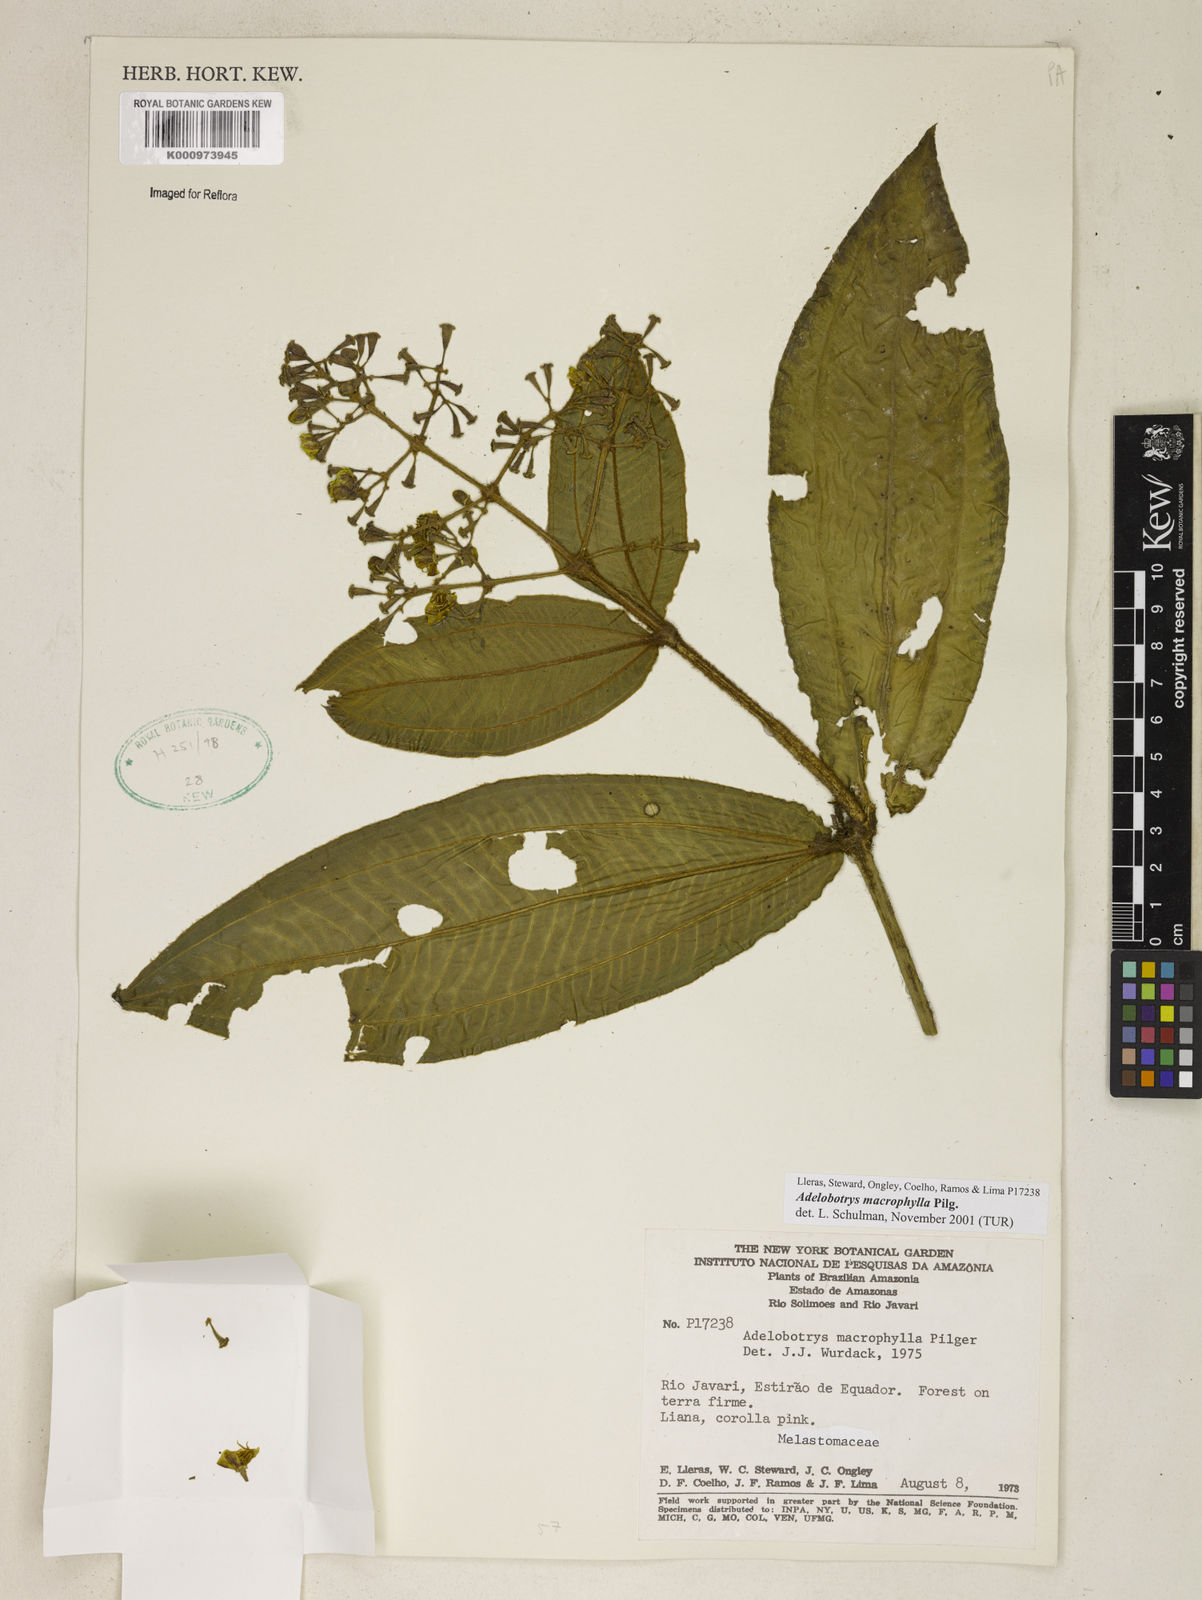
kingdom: Plantae
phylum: Tracheophyta
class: Magnoliopsida
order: Myrtales
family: Melastomataceae
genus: Adelobotrys
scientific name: Adelobotrys macrophyllus
